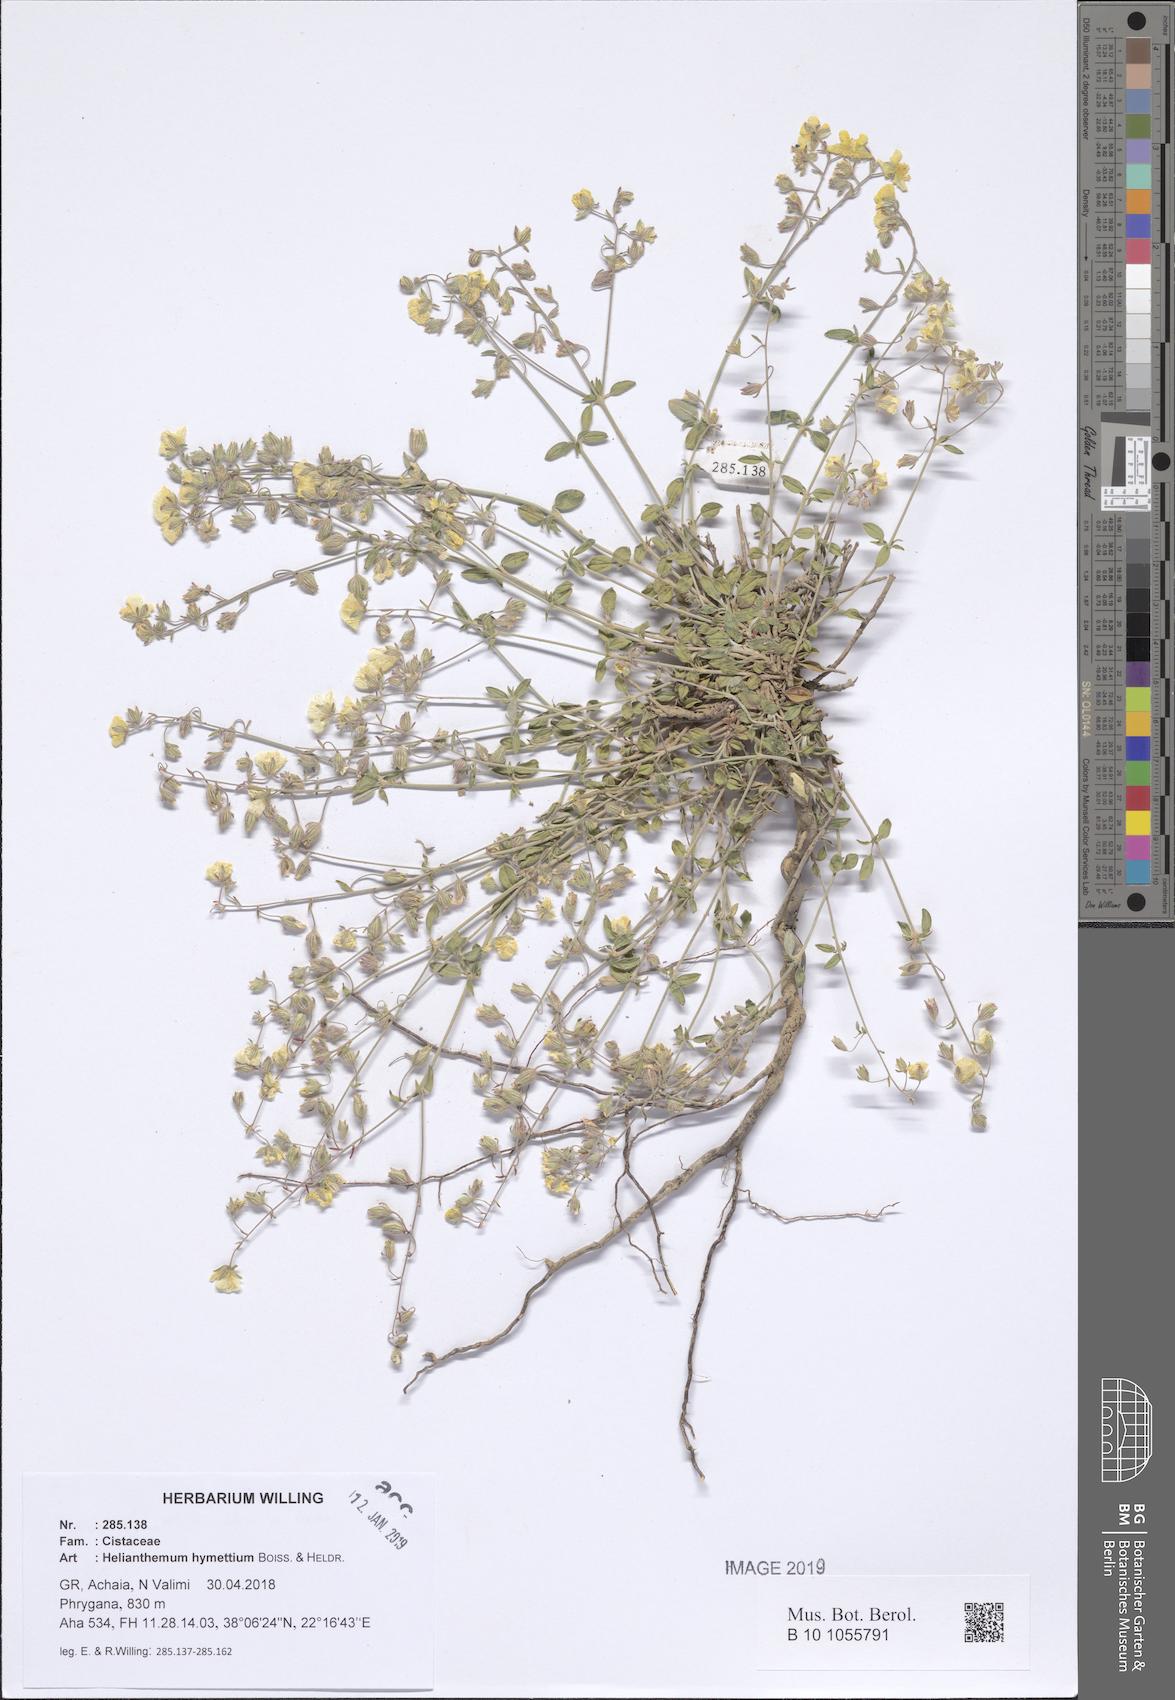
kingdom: Plantae
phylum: Tracheophyta
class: Magnoliopsida
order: Malvales
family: Cistaceae
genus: Helianthemum
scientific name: Helianthemum hymettium
